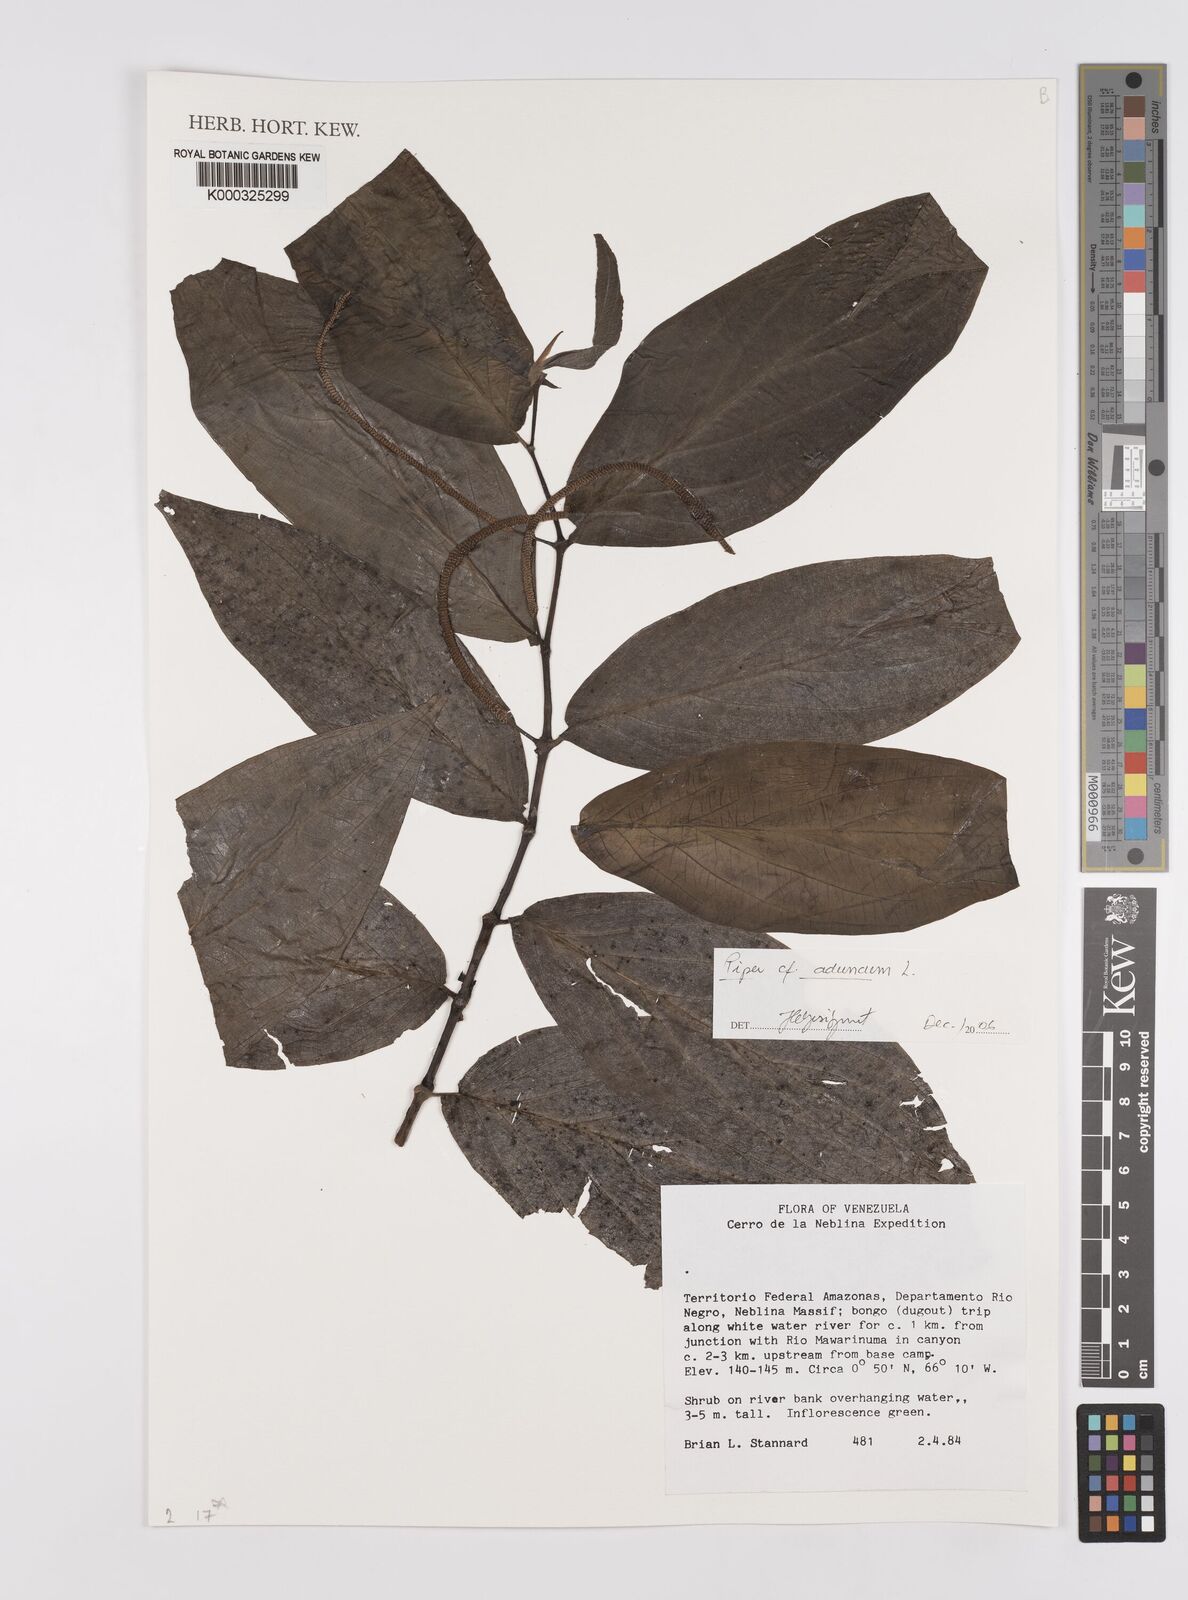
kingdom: Plantae
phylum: Tracheophyta
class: Magnoliopsida
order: Piperales
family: Piperaceae
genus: Piper
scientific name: Piper aduncum
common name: Spiked pepper
